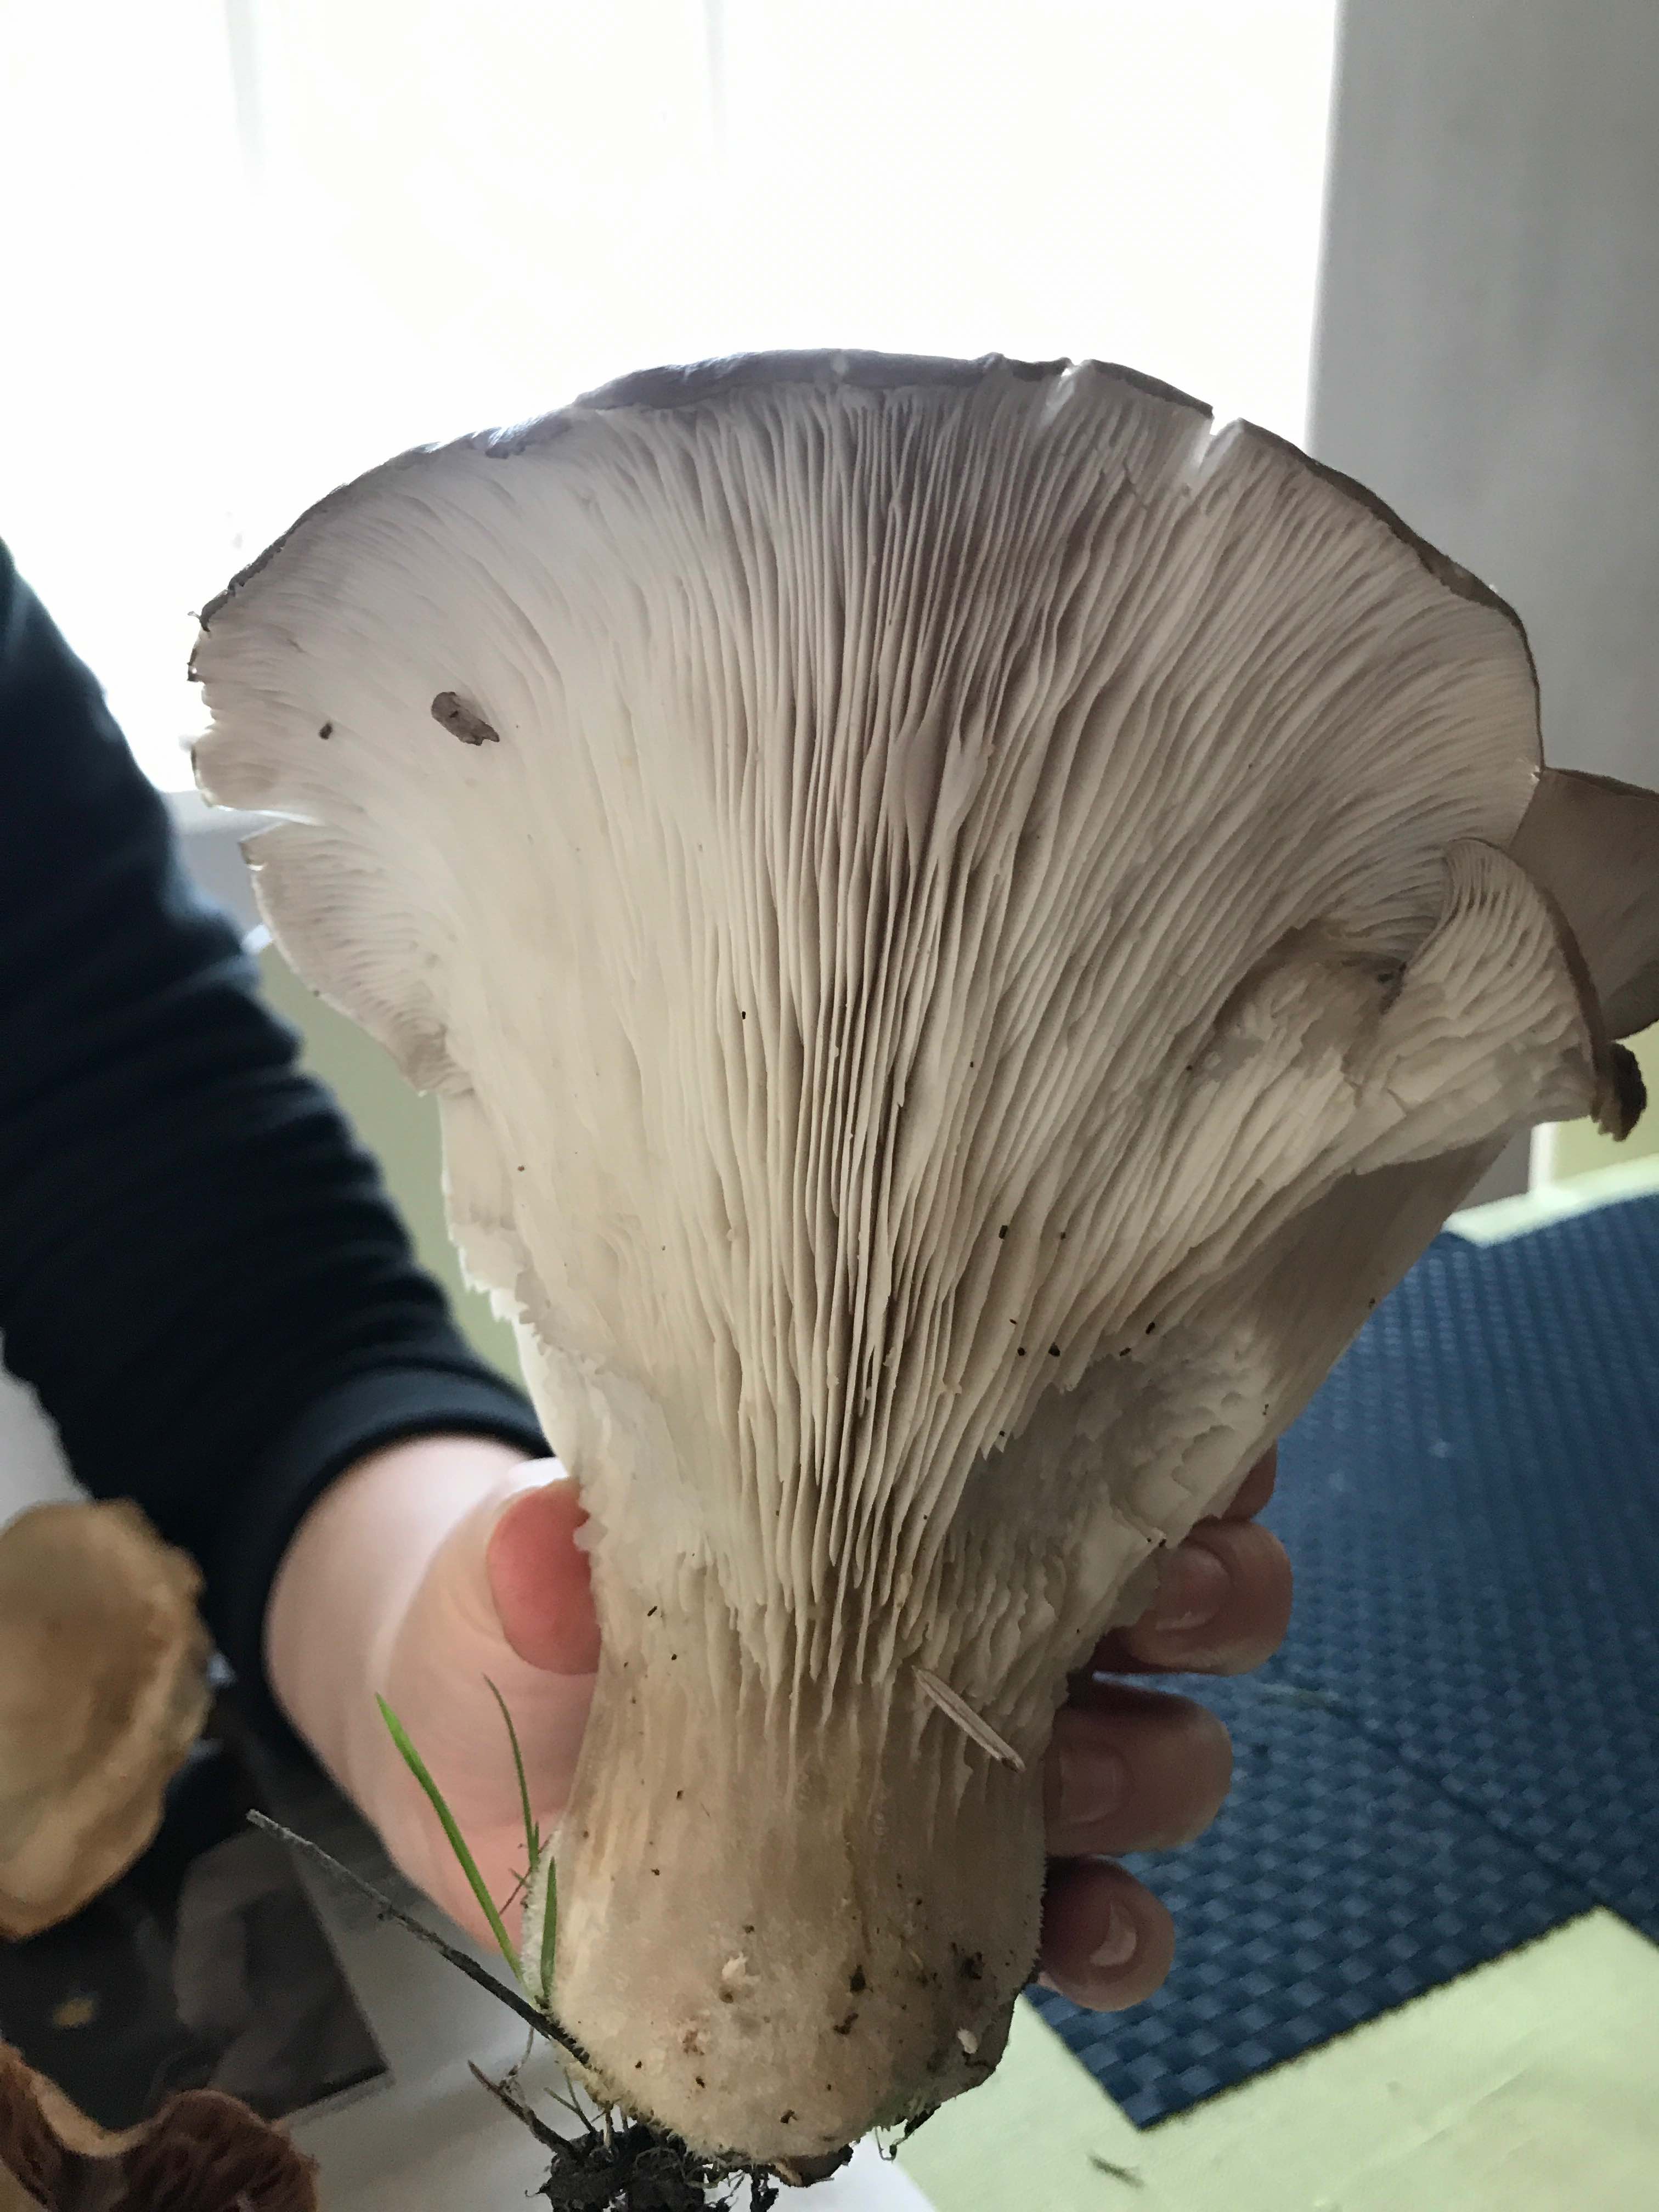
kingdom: Fungi
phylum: Basidiomycota
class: Agaricomycetes
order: Agaricales
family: Pleurotaceae
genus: Pleurotus
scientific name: Pleurotus ostreatus
